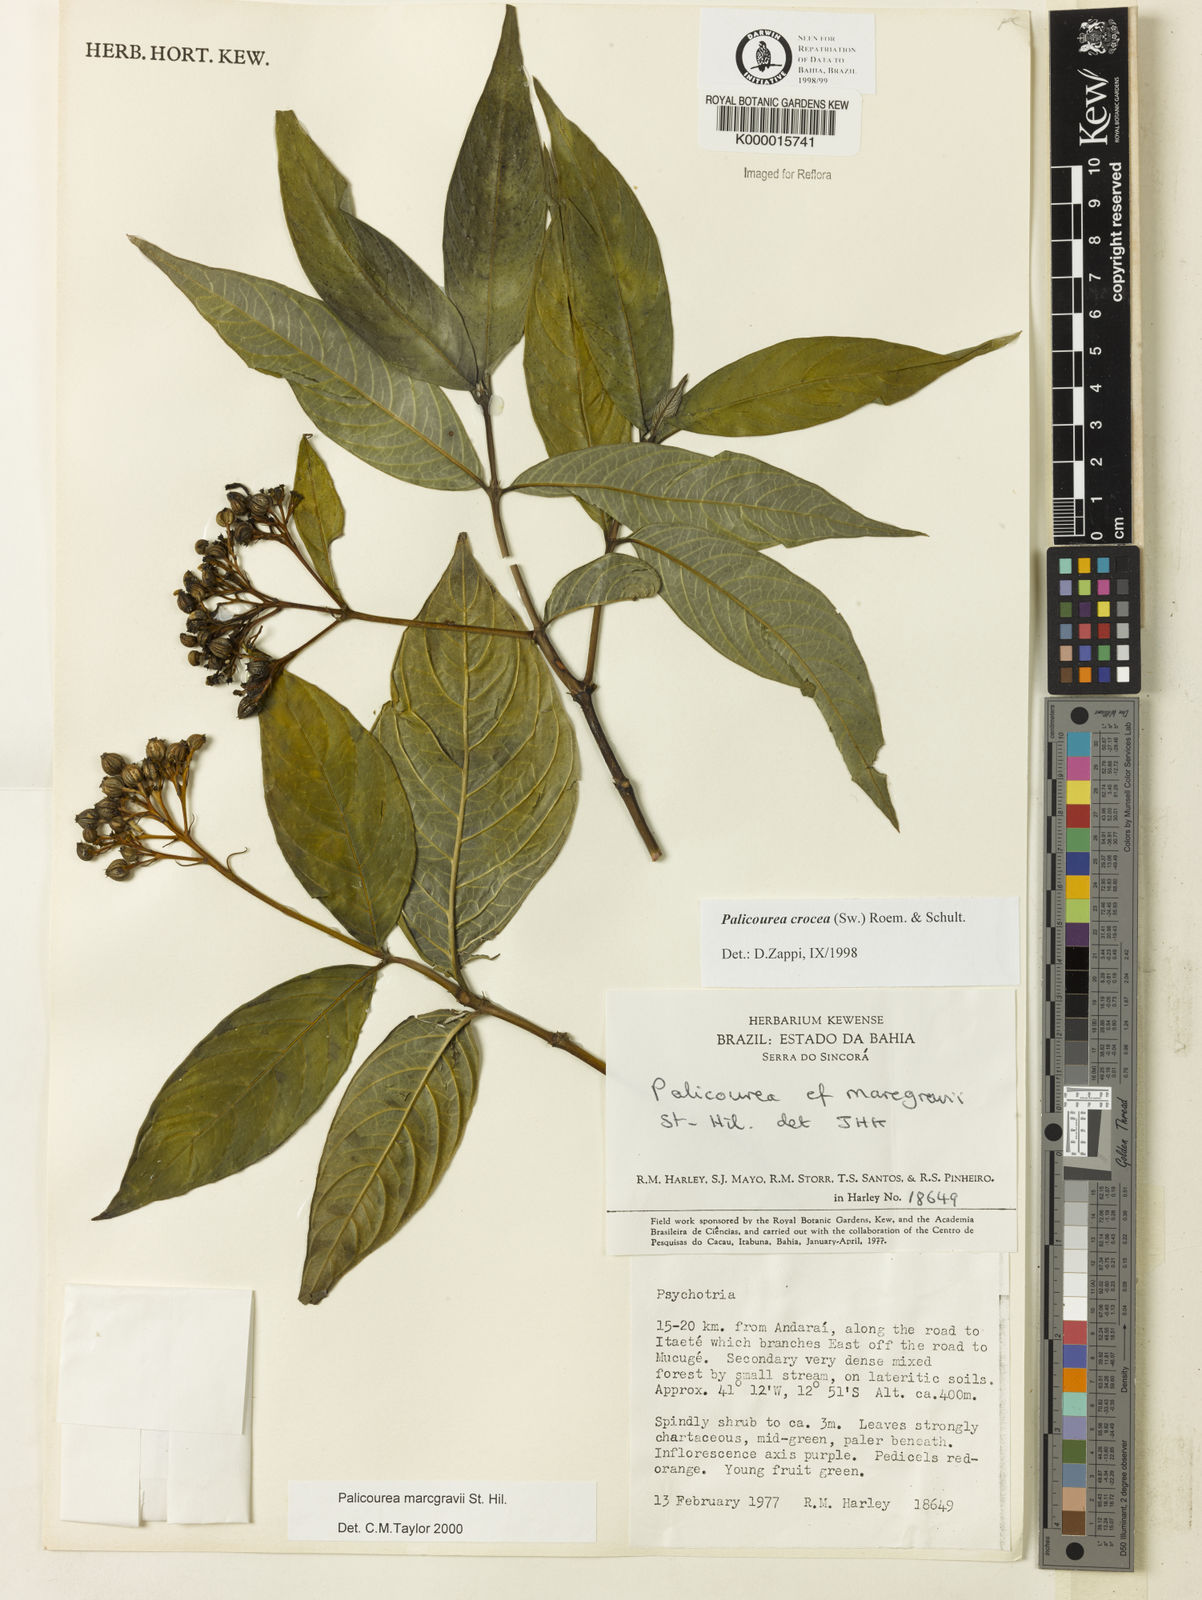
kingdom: Plantae
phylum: Tracheophyta
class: Magnoliopsida
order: Gentianales
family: Rubiaceae
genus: Palicourea
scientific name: Palicourea marcgravii
